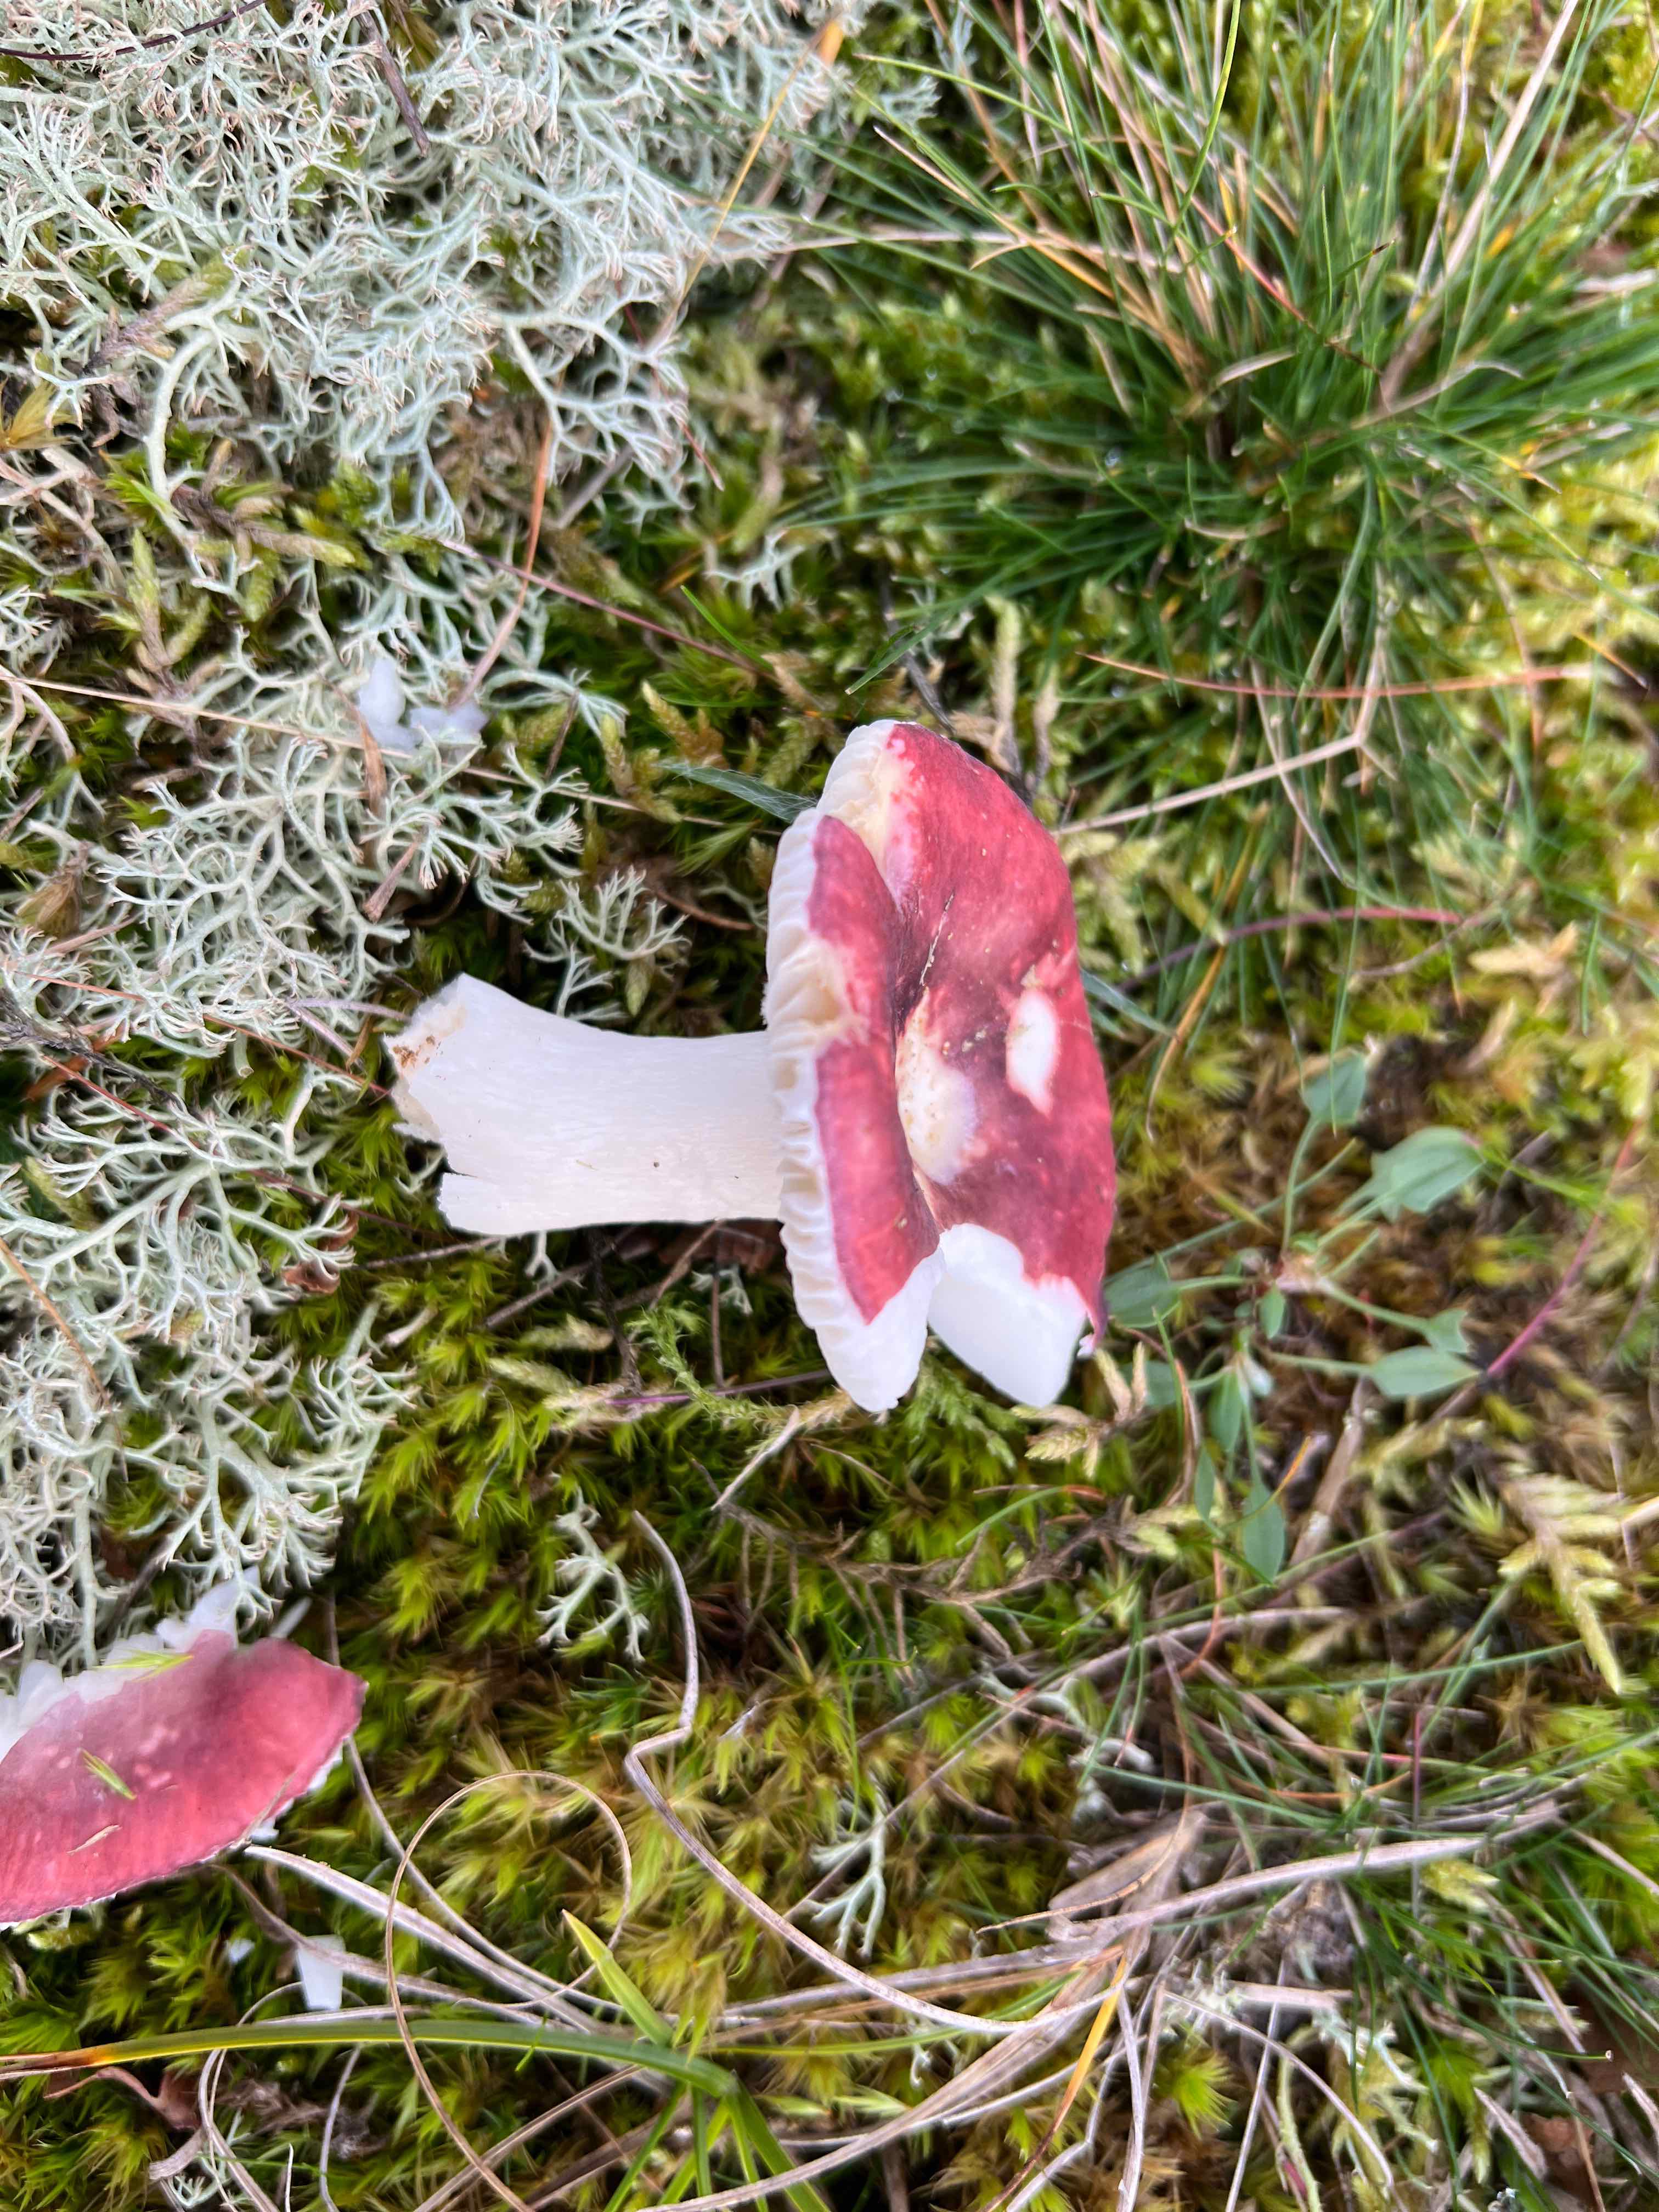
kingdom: Fungi
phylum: Basidiomycota
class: Agaricomycetes
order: Russulales
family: Russulaceae
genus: Russula
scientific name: Russula
